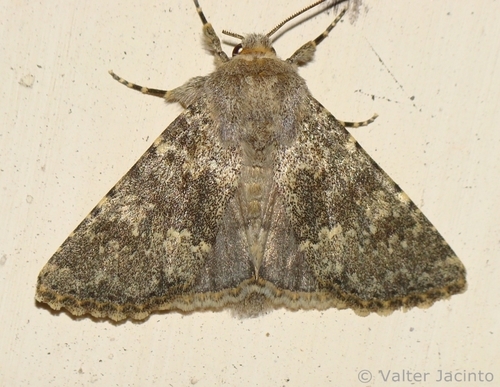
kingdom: Animalia
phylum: Arthropoda
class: Insecta
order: Lepidoptera
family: Noctuidae
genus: Polymixis
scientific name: Polymixis dubia
